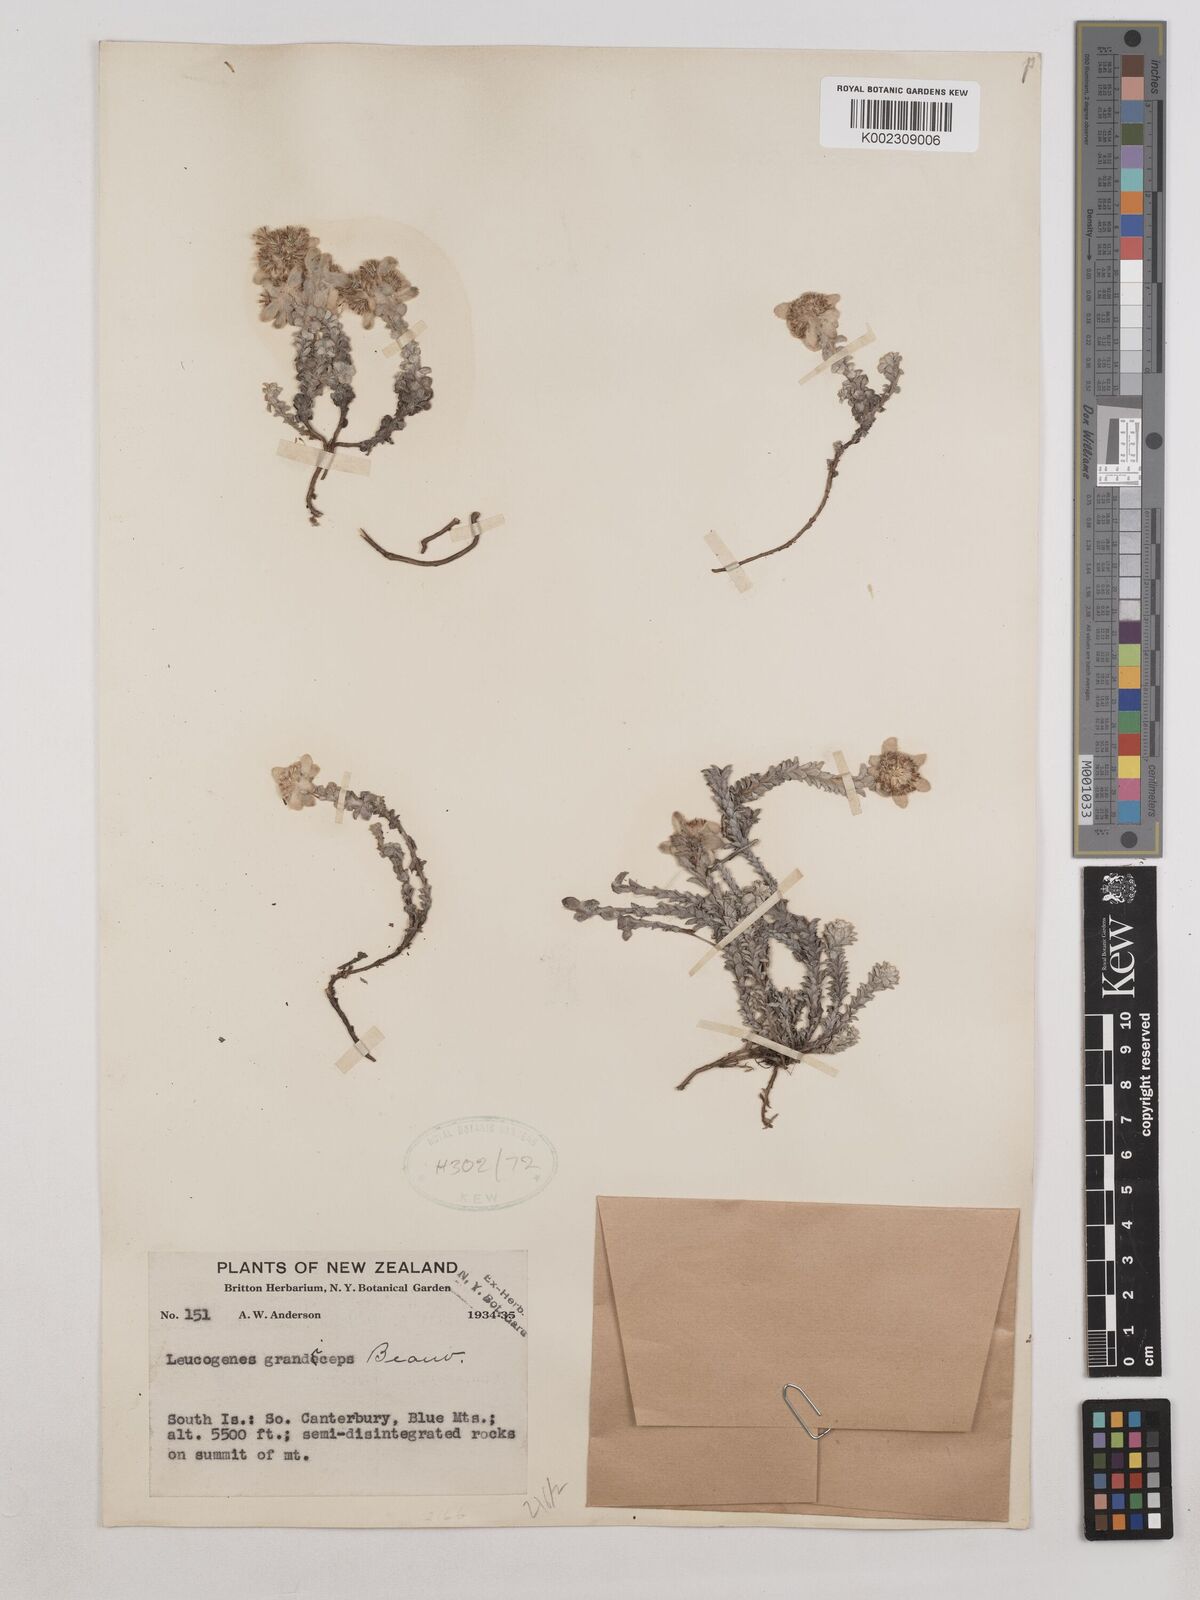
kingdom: Plantae
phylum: Tracheophyta
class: Magnoliopsida
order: Asterales
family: Asteraceae
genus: Leucogenes
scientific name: Leucogenes grandiceps
